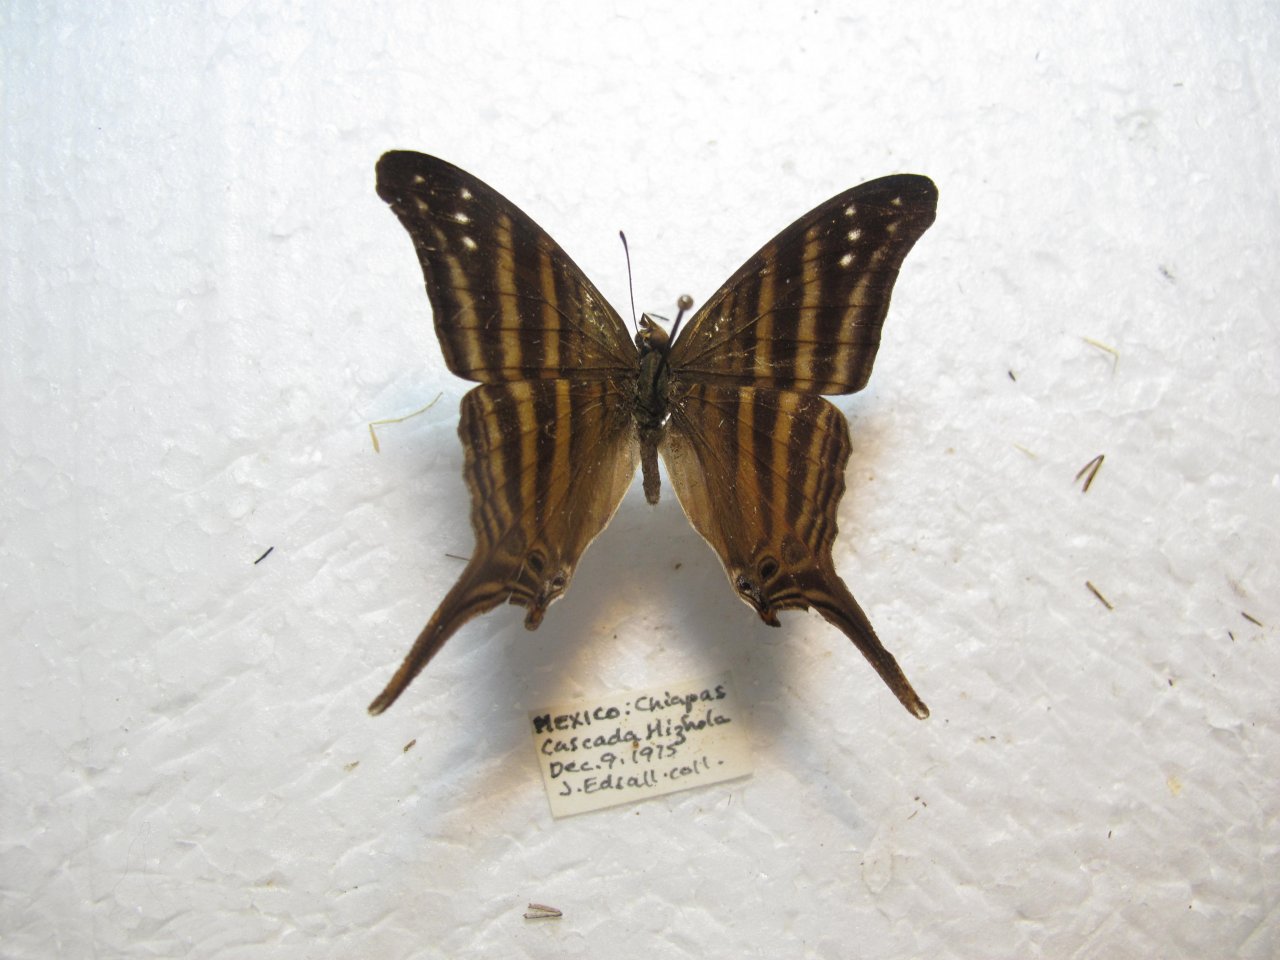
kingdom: Animalia
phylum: Arthropoda
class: Insecta
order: Lepidoptera
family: Nymphalidae
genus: Marpesia
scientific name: Marpesia chiron
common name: Many-banded Daggerwing
